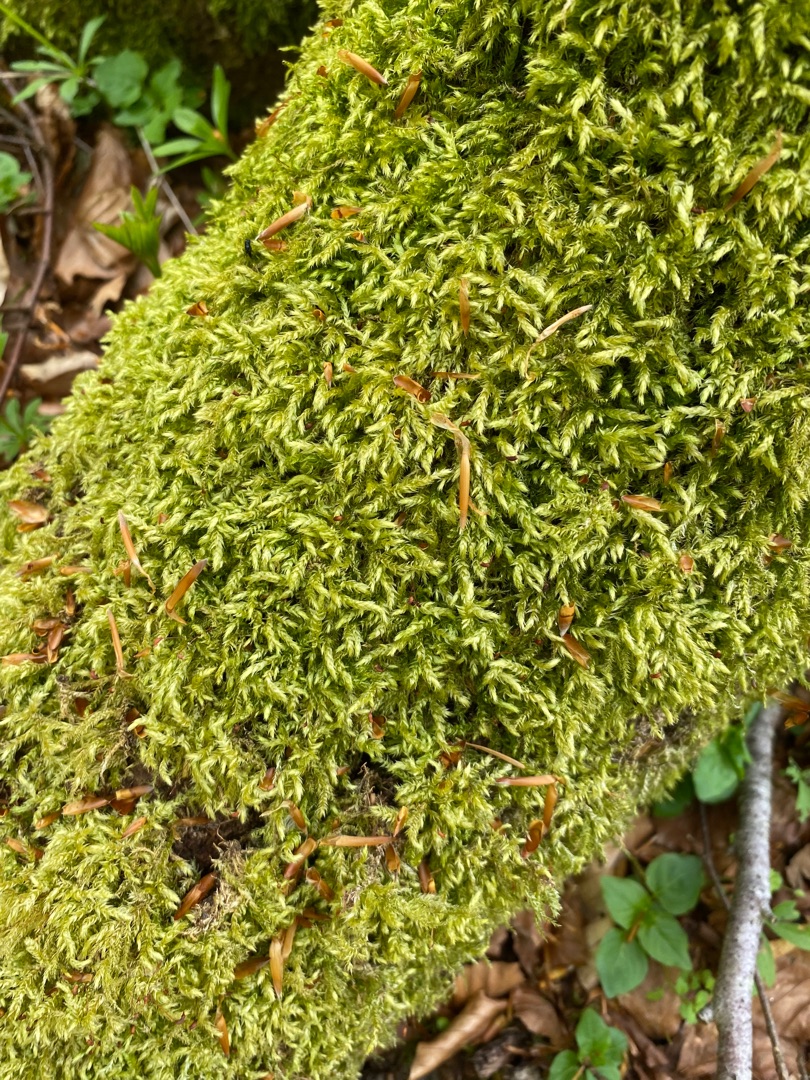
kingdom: Plantae
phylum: Bryophyta
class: Bryopsida
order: Hypnales
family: Brachytheciaceae
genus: Brachythecium
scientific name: Brachythecium rutabulum
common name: Almindelig kortkapsel
